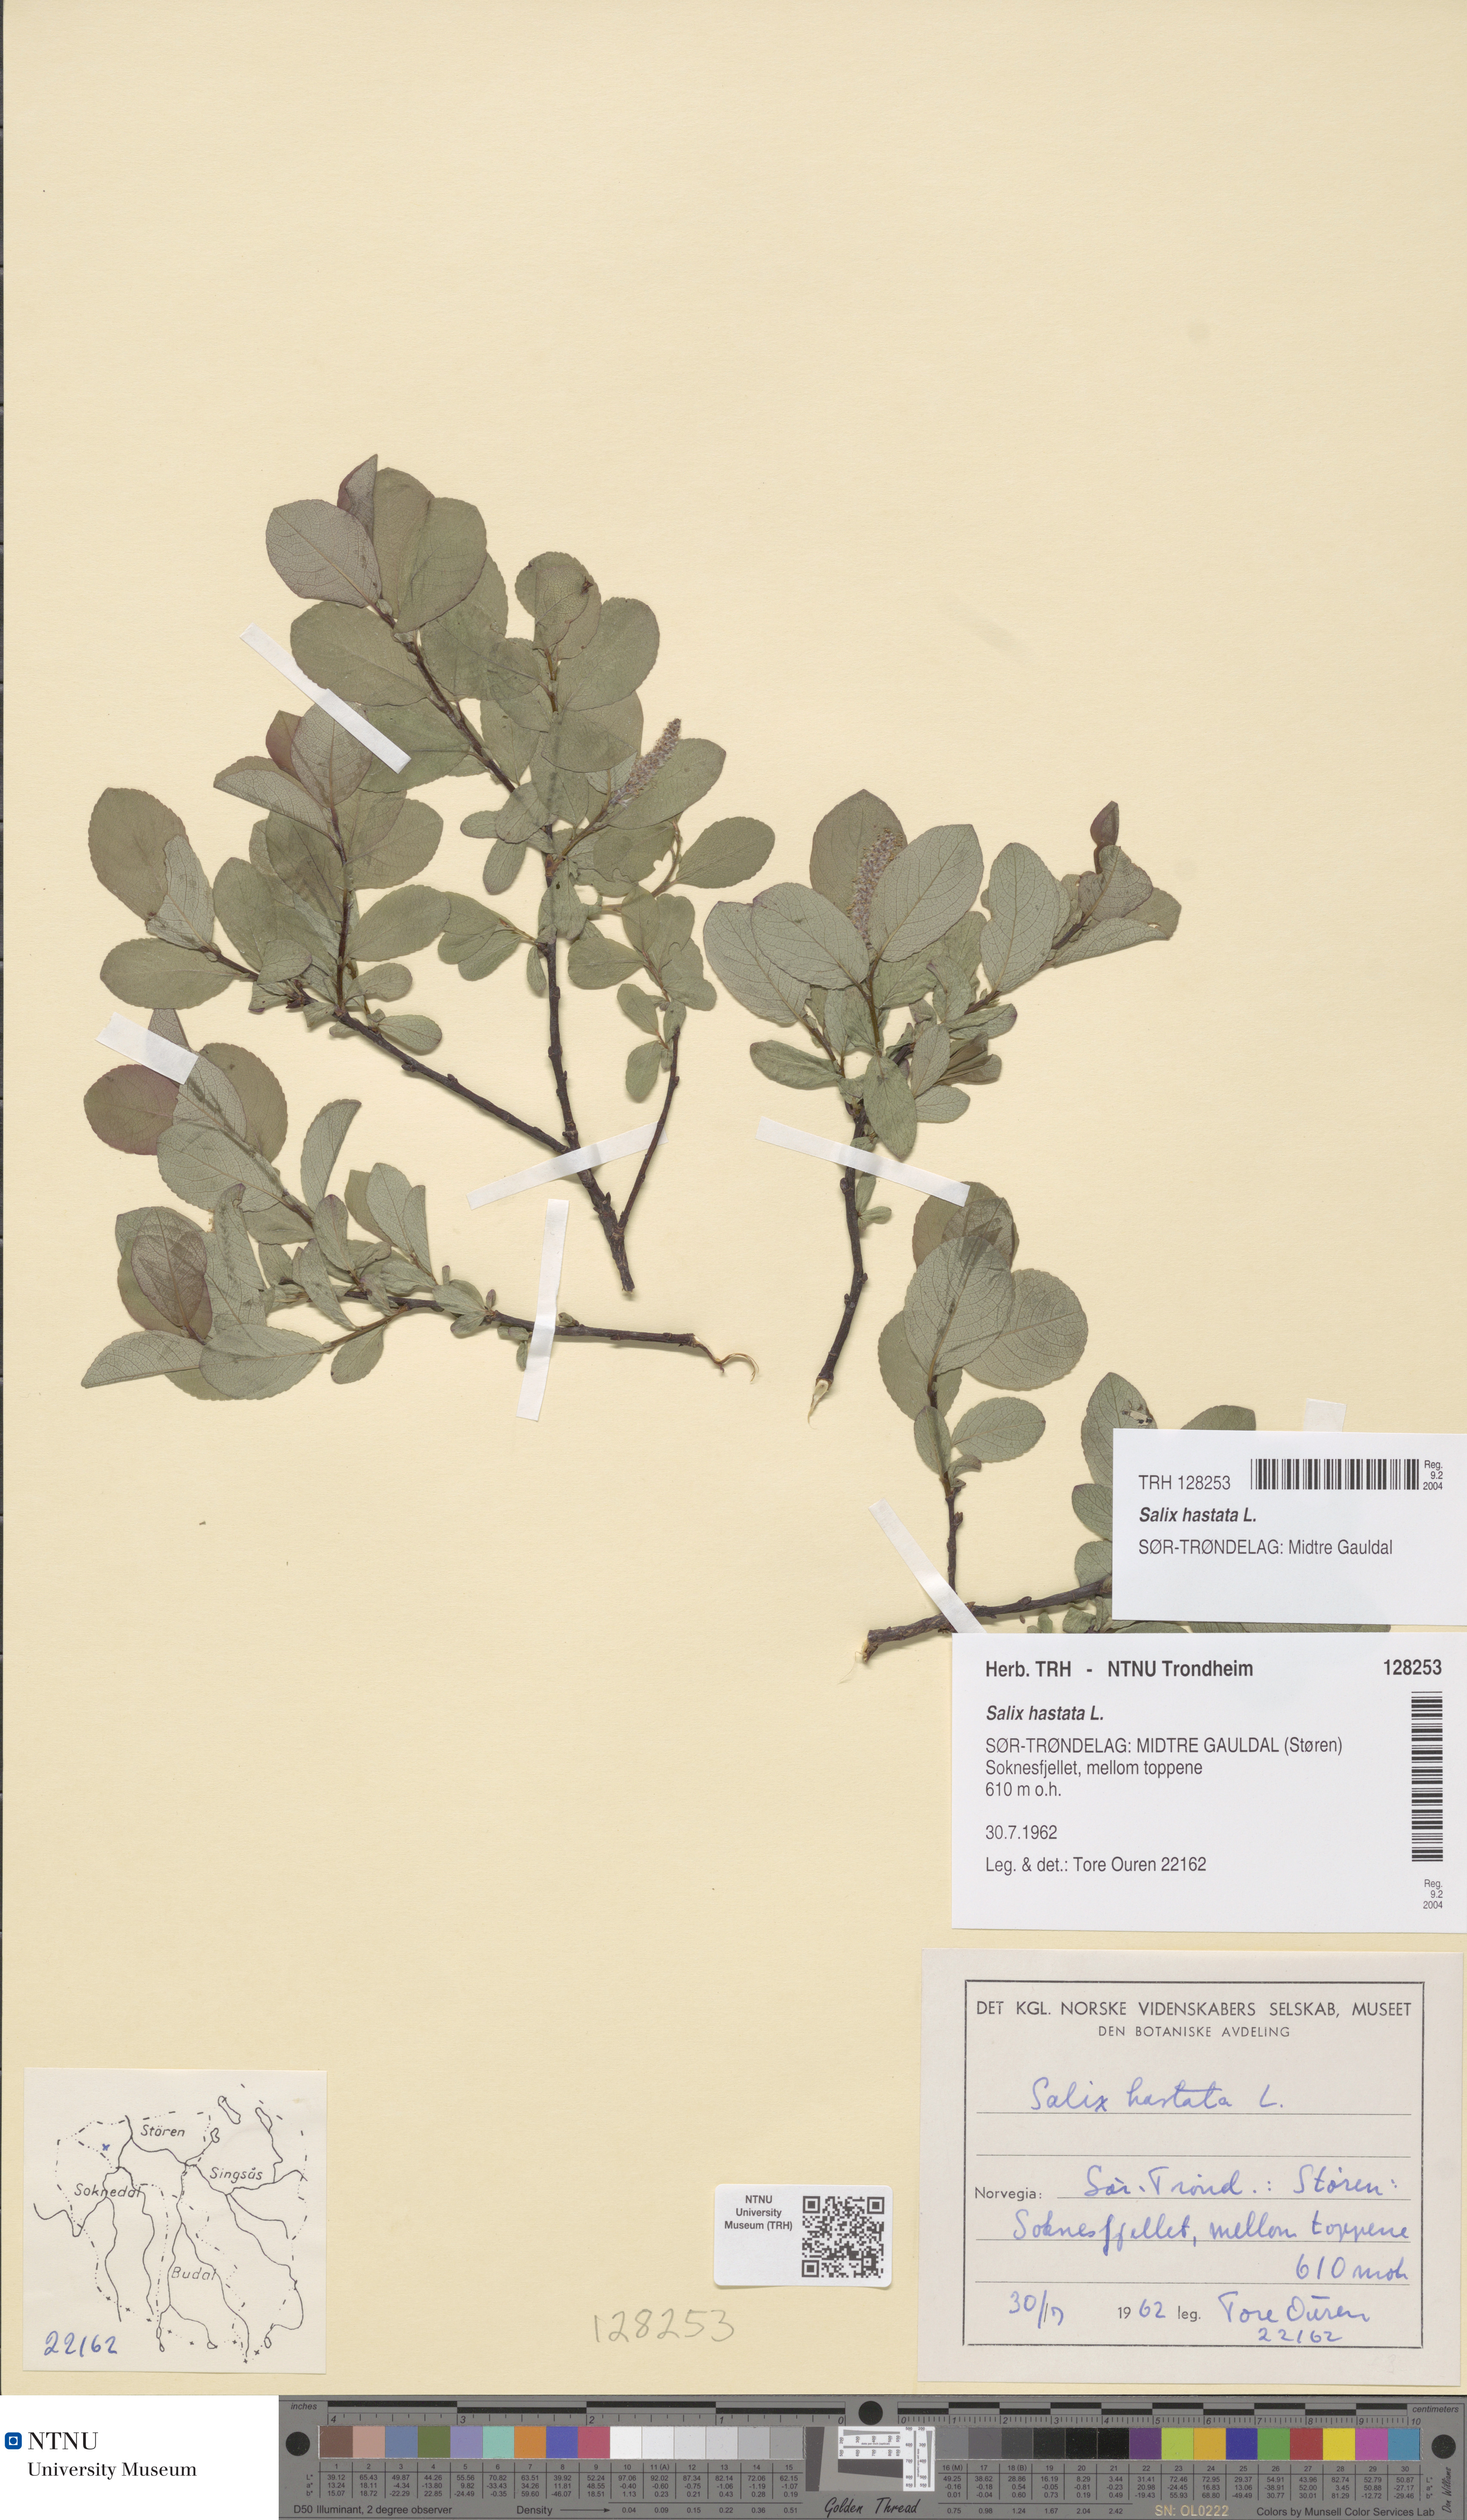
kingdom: Plantae
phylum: Tracheophyta
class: Magnoliopsida
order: Malpighiales
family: Salicaceae
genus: Salix
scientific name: Salix hastata
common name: Halberd willow
